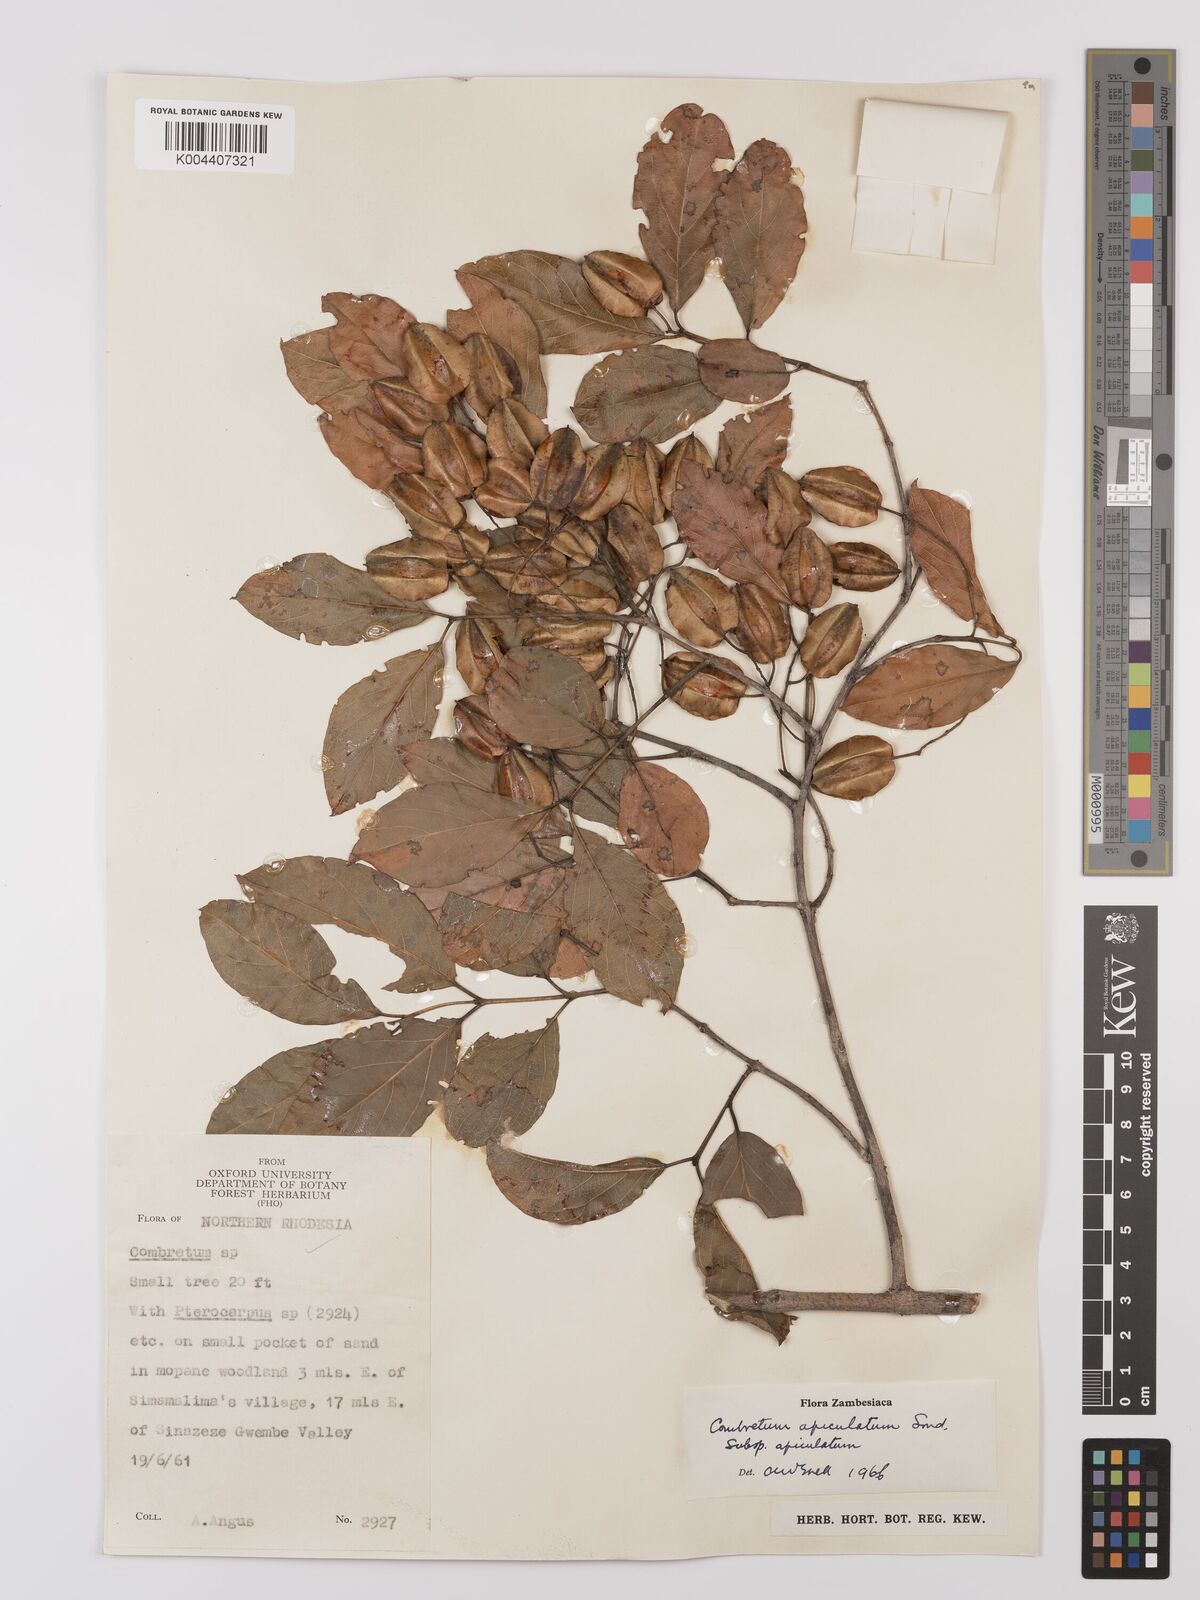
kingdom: Plantae
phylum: Tracheophyta
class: Magnoliopsida
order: Myrtales
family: Combretaceae
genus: Combretum
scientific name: Combretum apiculatum
